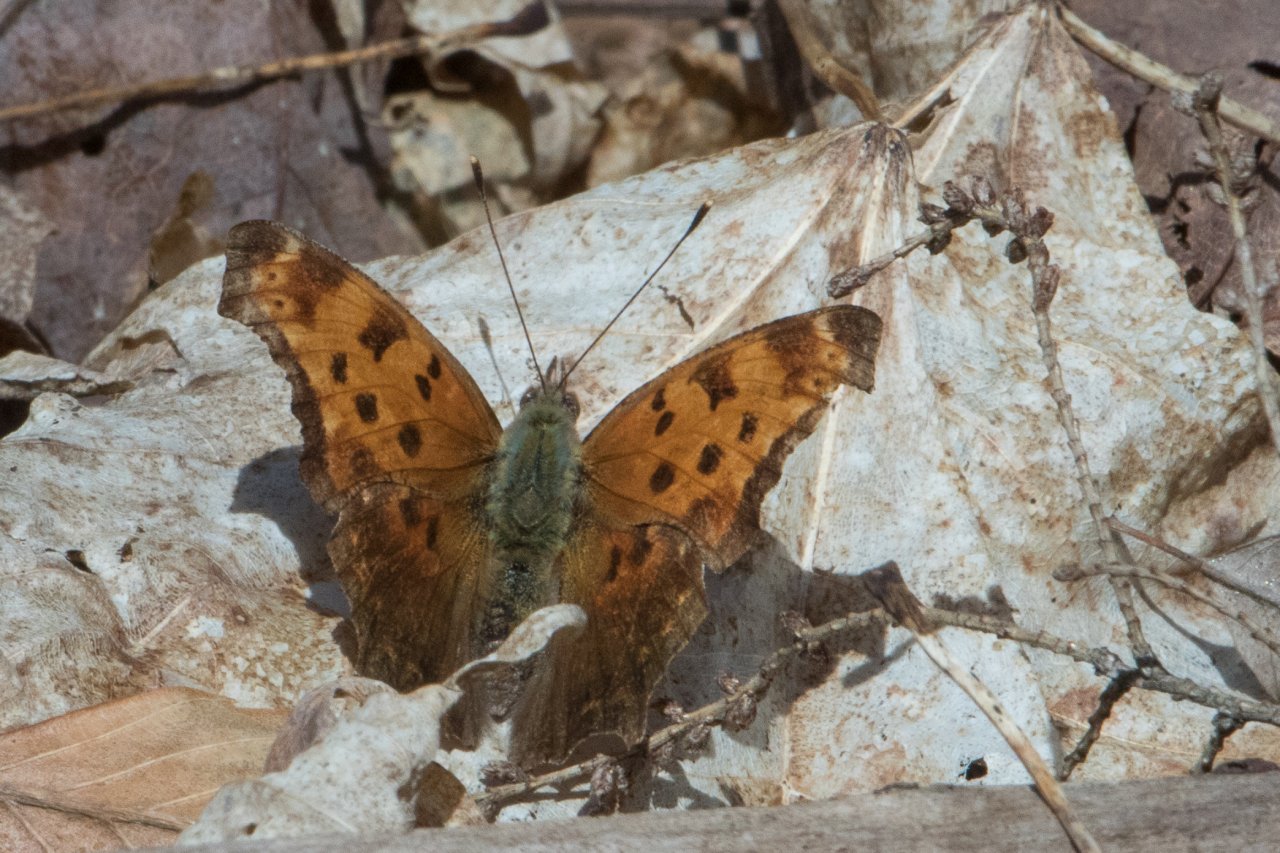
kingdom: Animalia
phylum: Arthropoda
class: Insecta
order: Lepidoptera
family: Nymphalidae
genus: Polygonia
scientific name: Polygonia comma
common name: Eastern Comma
